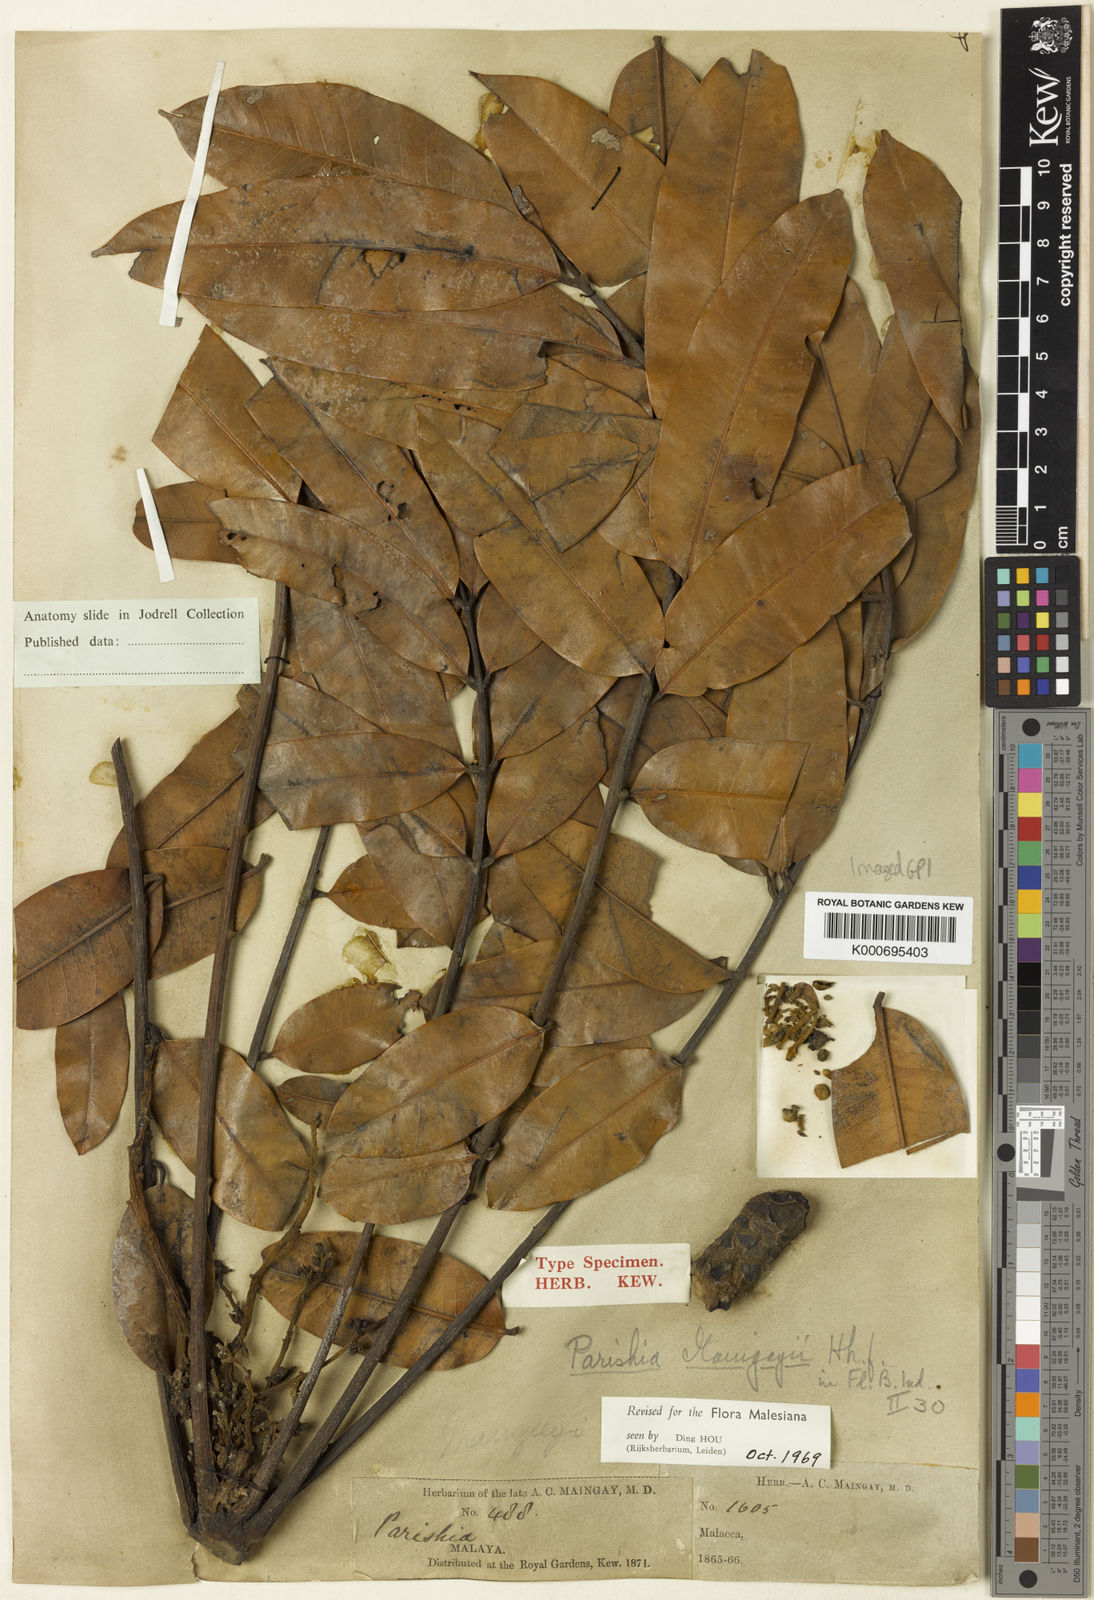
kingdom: Plantae
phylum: Tracheophyta
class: Magnoliopsida
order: Sapindales
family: Anacardiaceae
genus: Parishia
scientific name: Parishia maingayi
